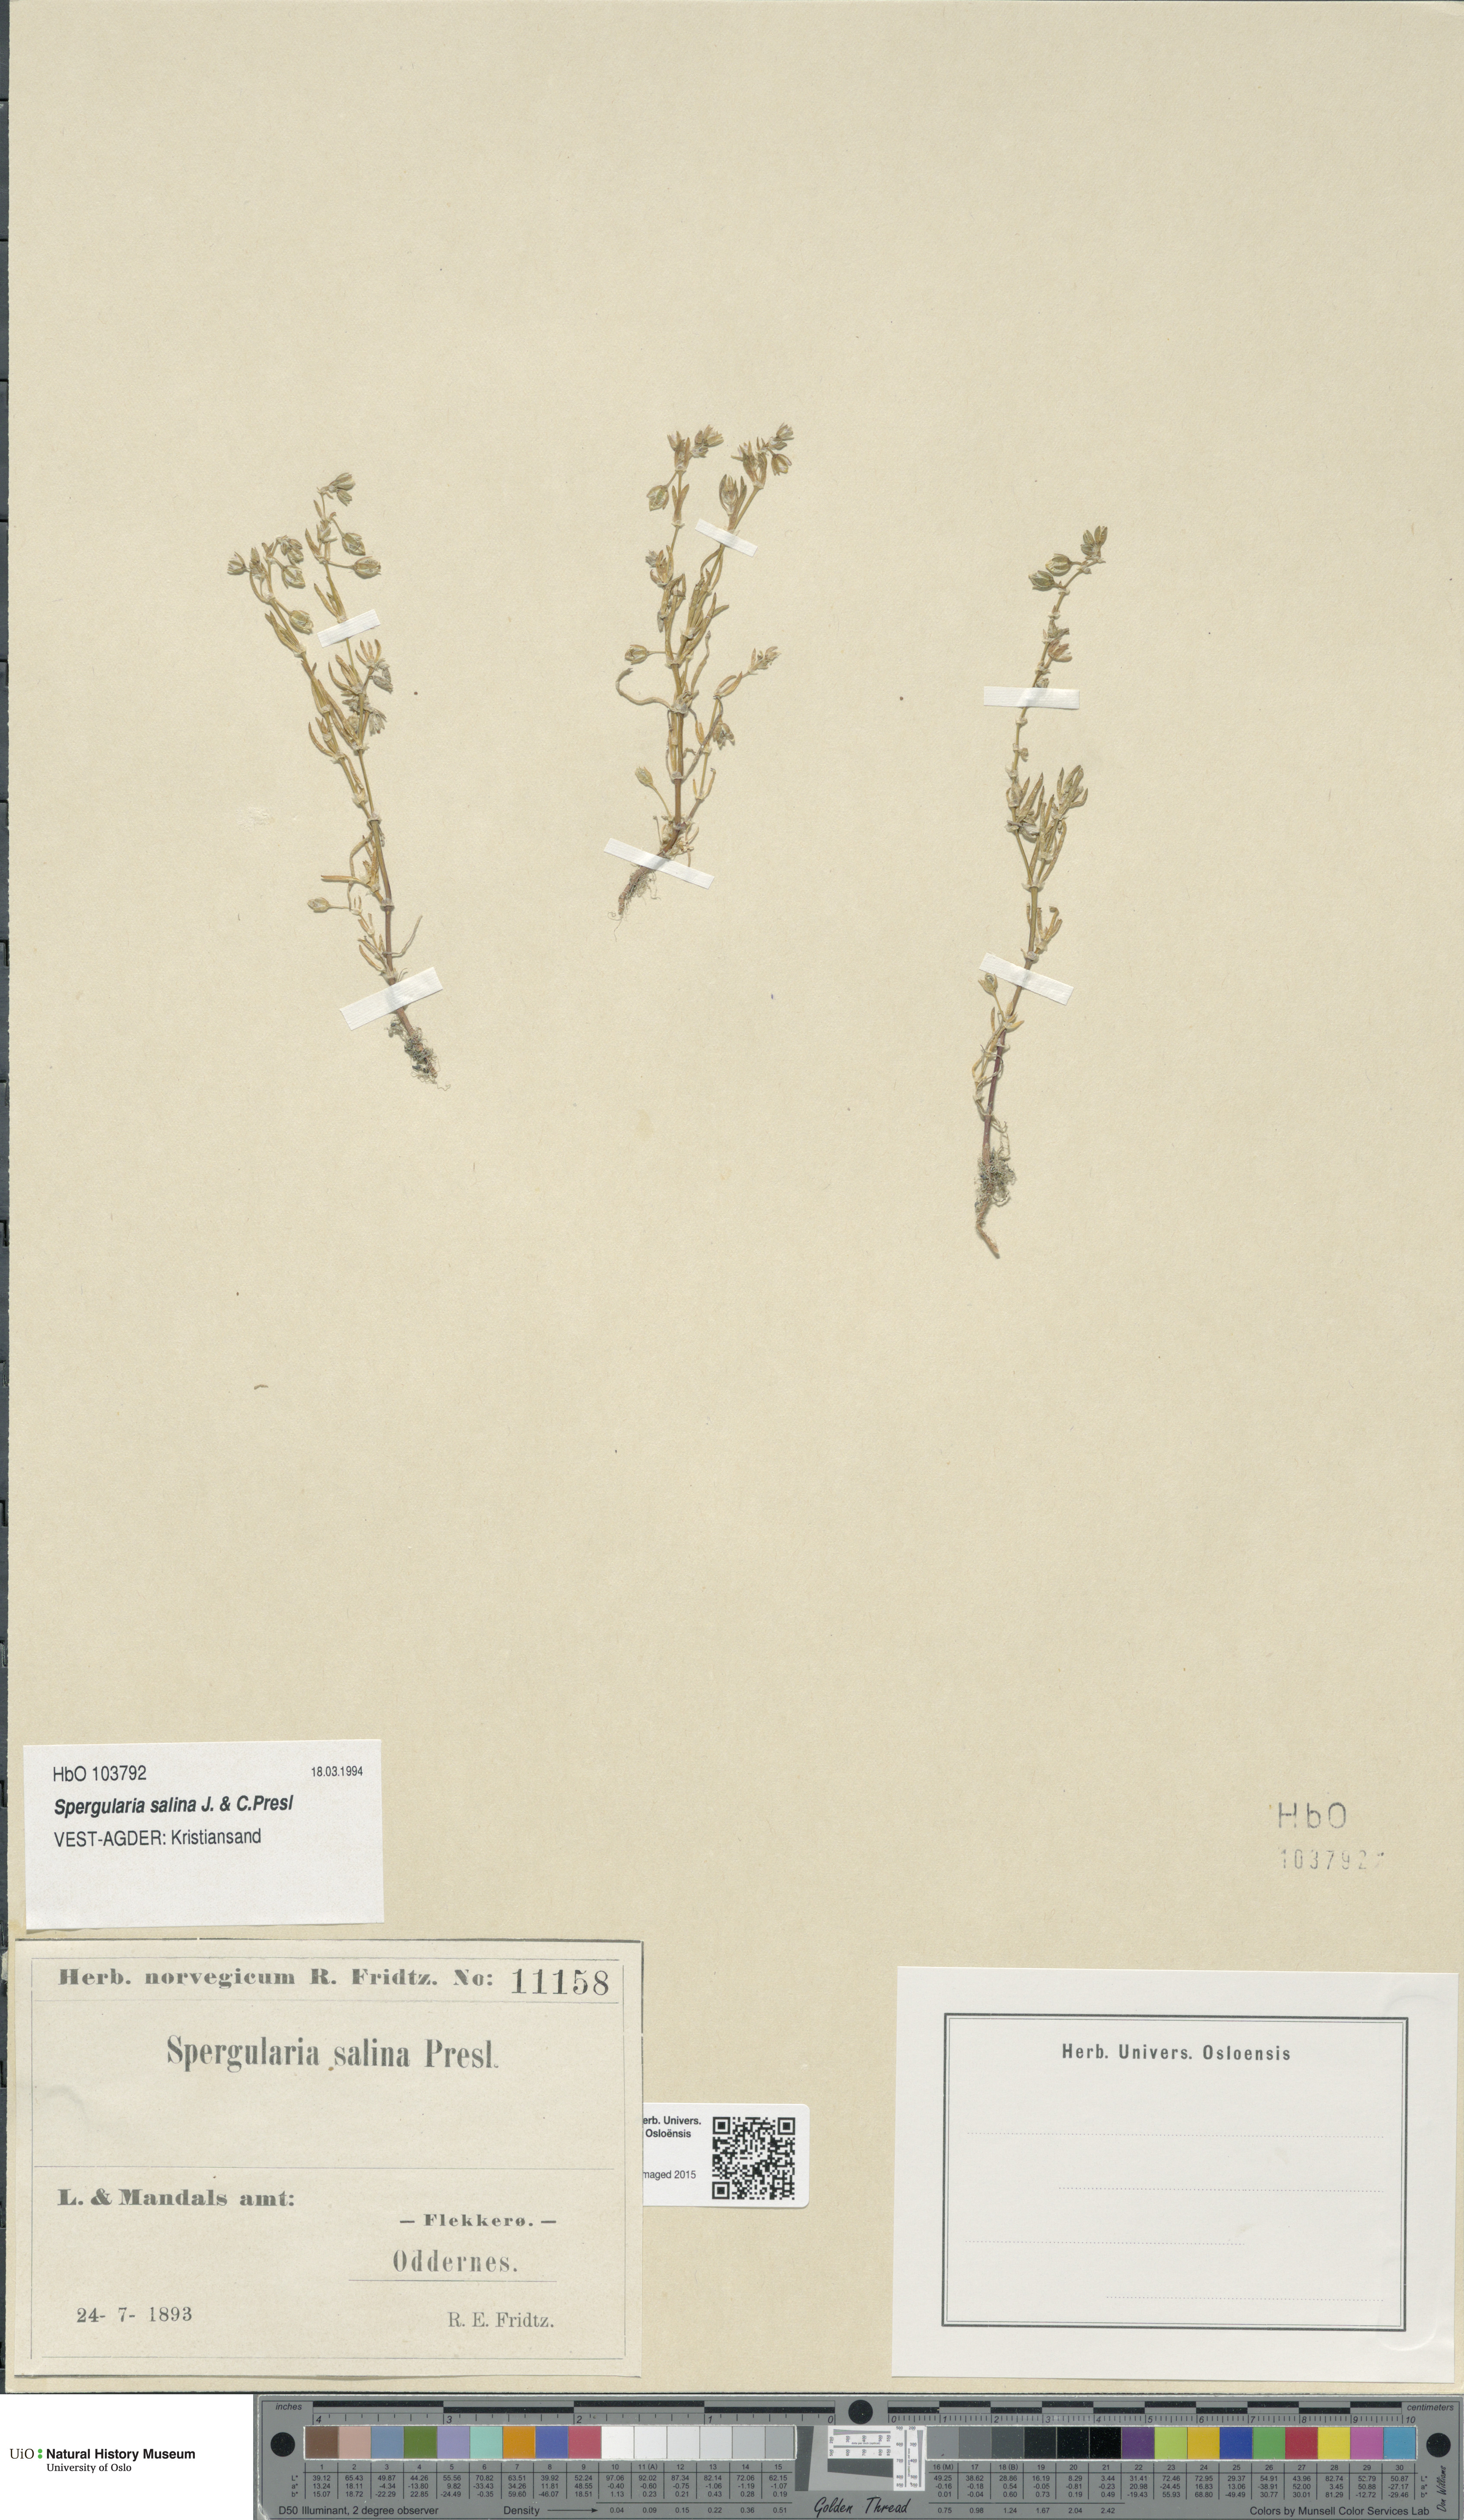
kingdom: Plantae
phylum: Tracheophyta
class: Magnoliopsida
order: Caryophyllales
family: Caryophyllaceae
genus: Spergularia
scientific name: Spergularia marina
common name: Lesser sea-spurrey
